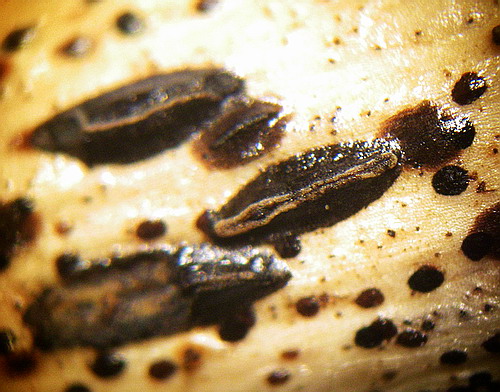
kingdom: Fungi
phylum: Ascomycota
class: Leotiomycetes
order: Rhytismatales
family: Rhytismataceae
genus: Hypoderma
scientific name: Hypoderma rubi
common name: brombær-fureplet
